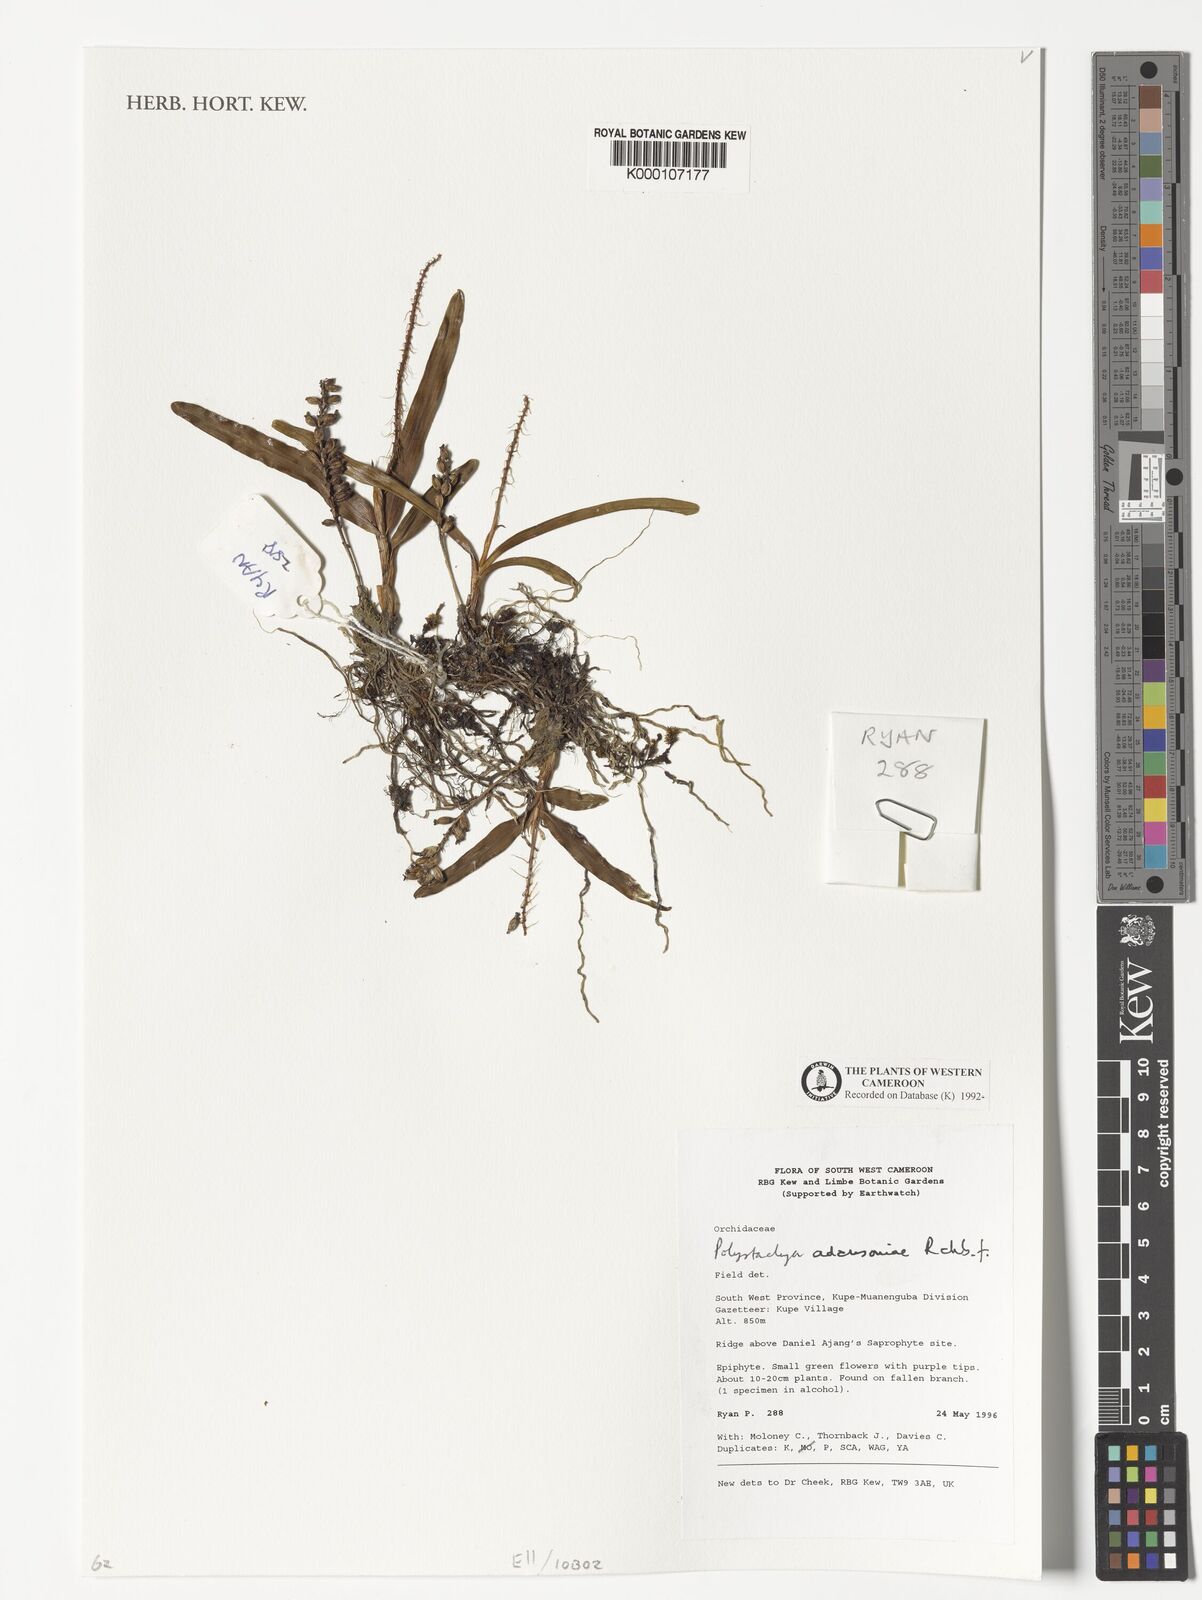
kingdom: Plantae
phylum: Tracheophyta
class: Liliopsida
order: Asparagales
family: Orchidaceae
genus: Polystachya
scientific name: Polystachya adansoniae
